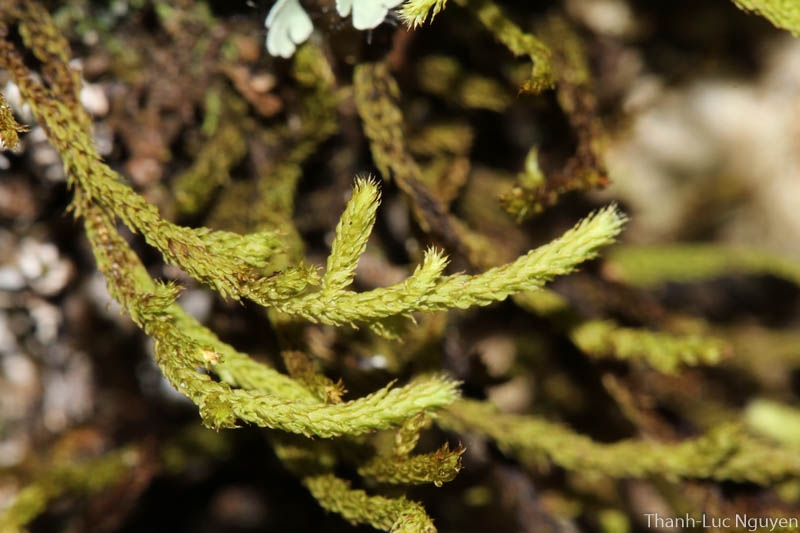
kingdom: Plantae
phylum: Bryophyta
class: Bryopsida
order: Hypnales
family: Meteoriaceae
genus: Cryptopapillaria
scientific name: Cryptopapillaria feae
